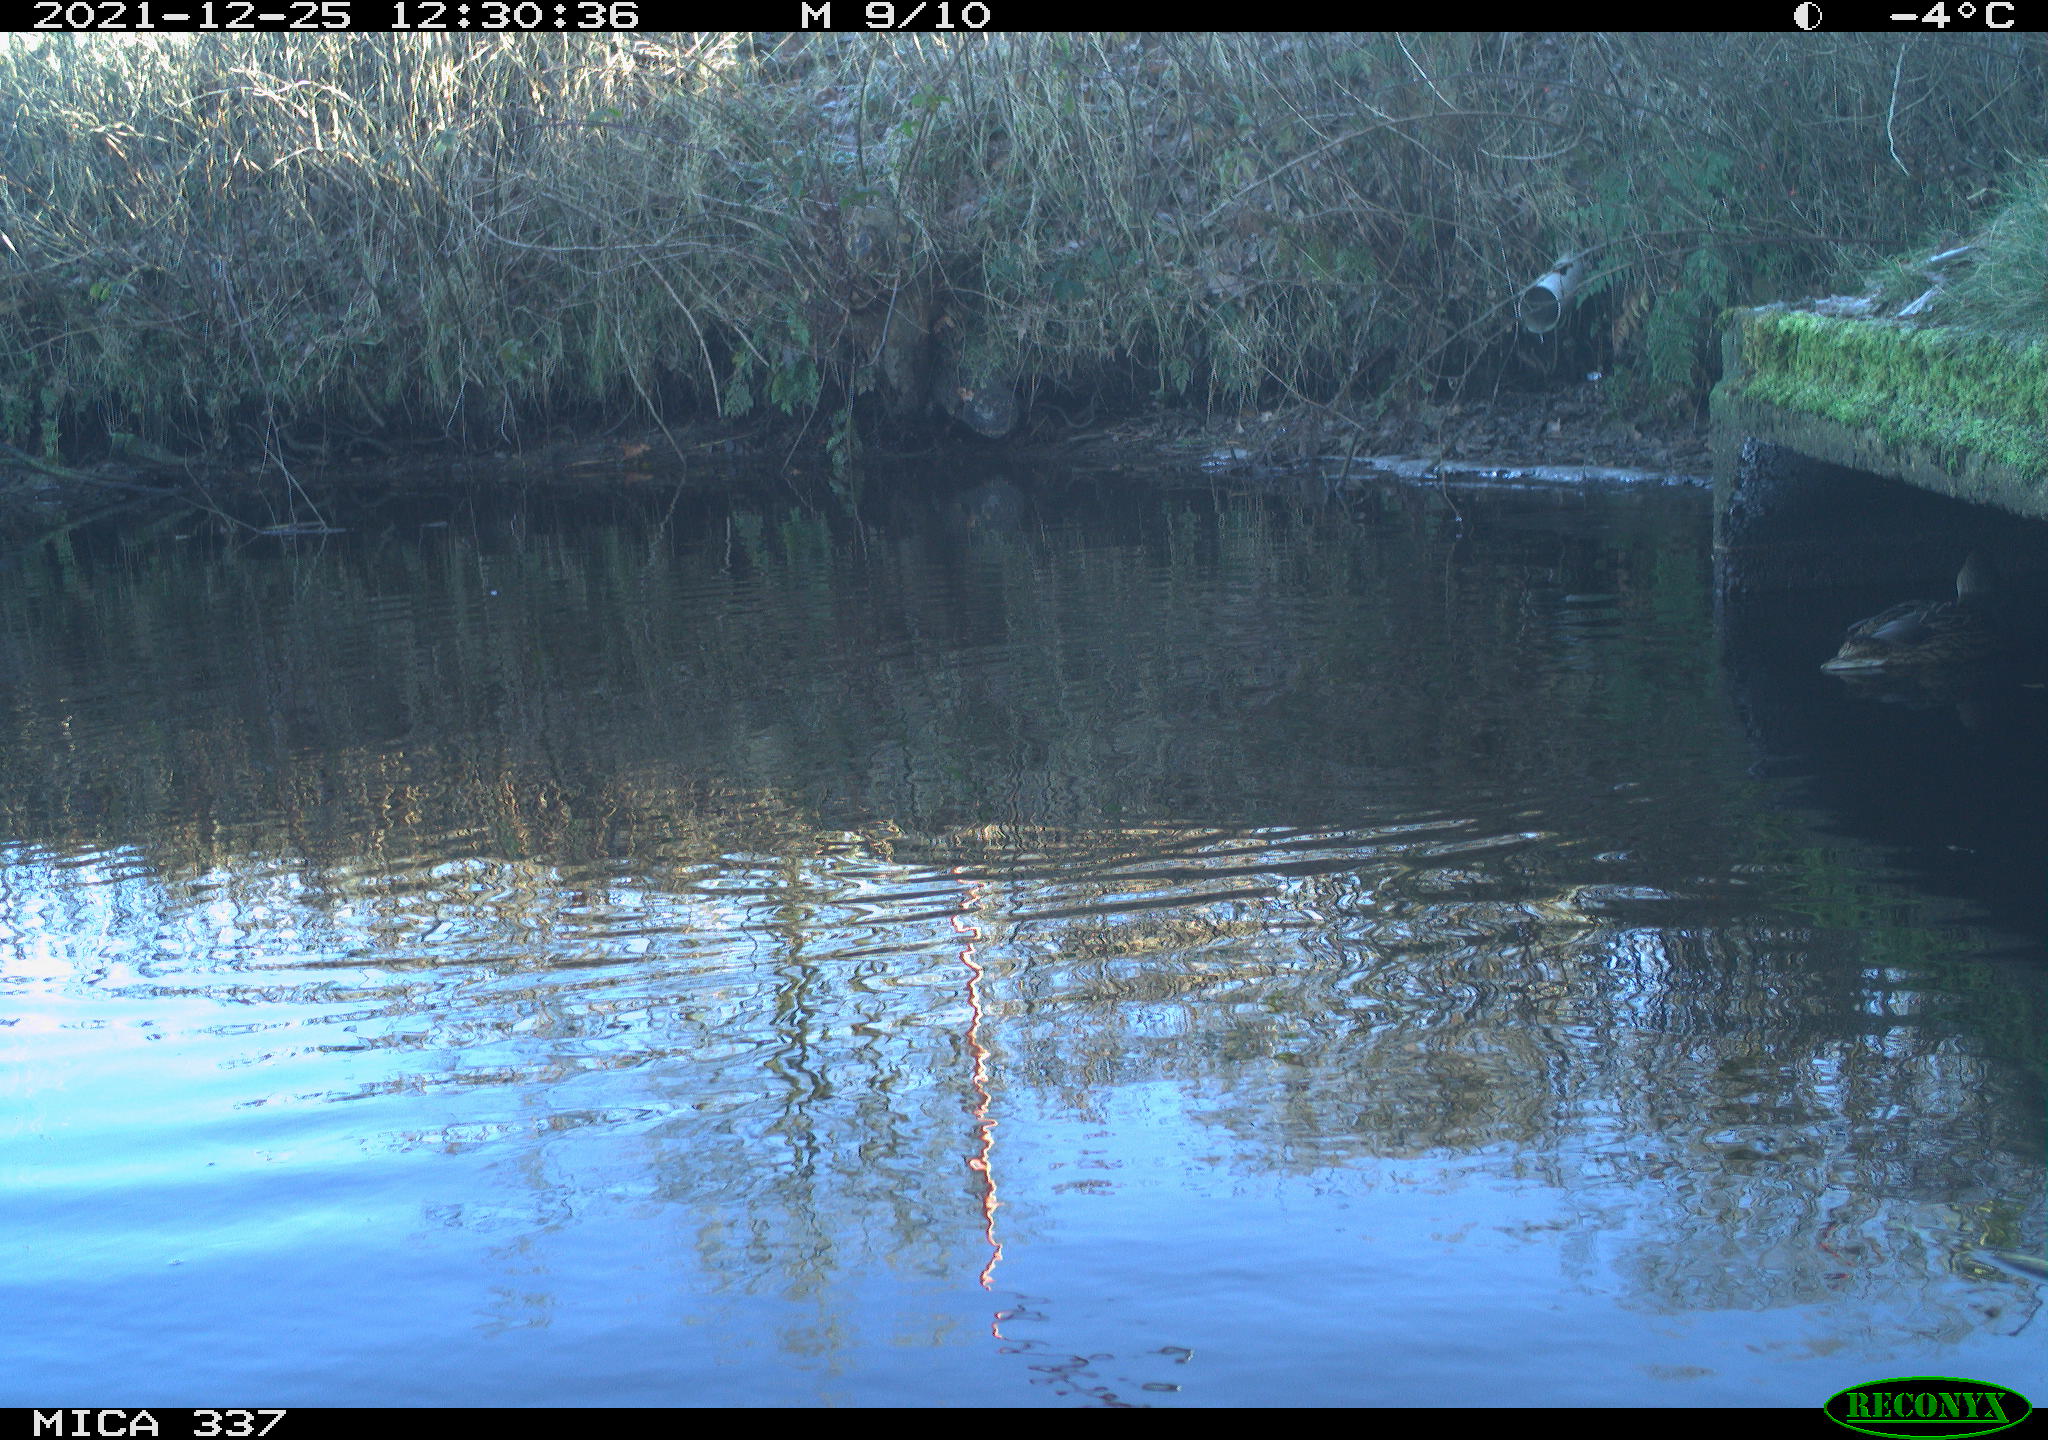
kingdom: Animalia
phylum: Chordata
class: Aves
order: Anseriformes
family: Anatidae
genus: Anas
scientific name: Anas platyrhynchos
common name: Mallard
